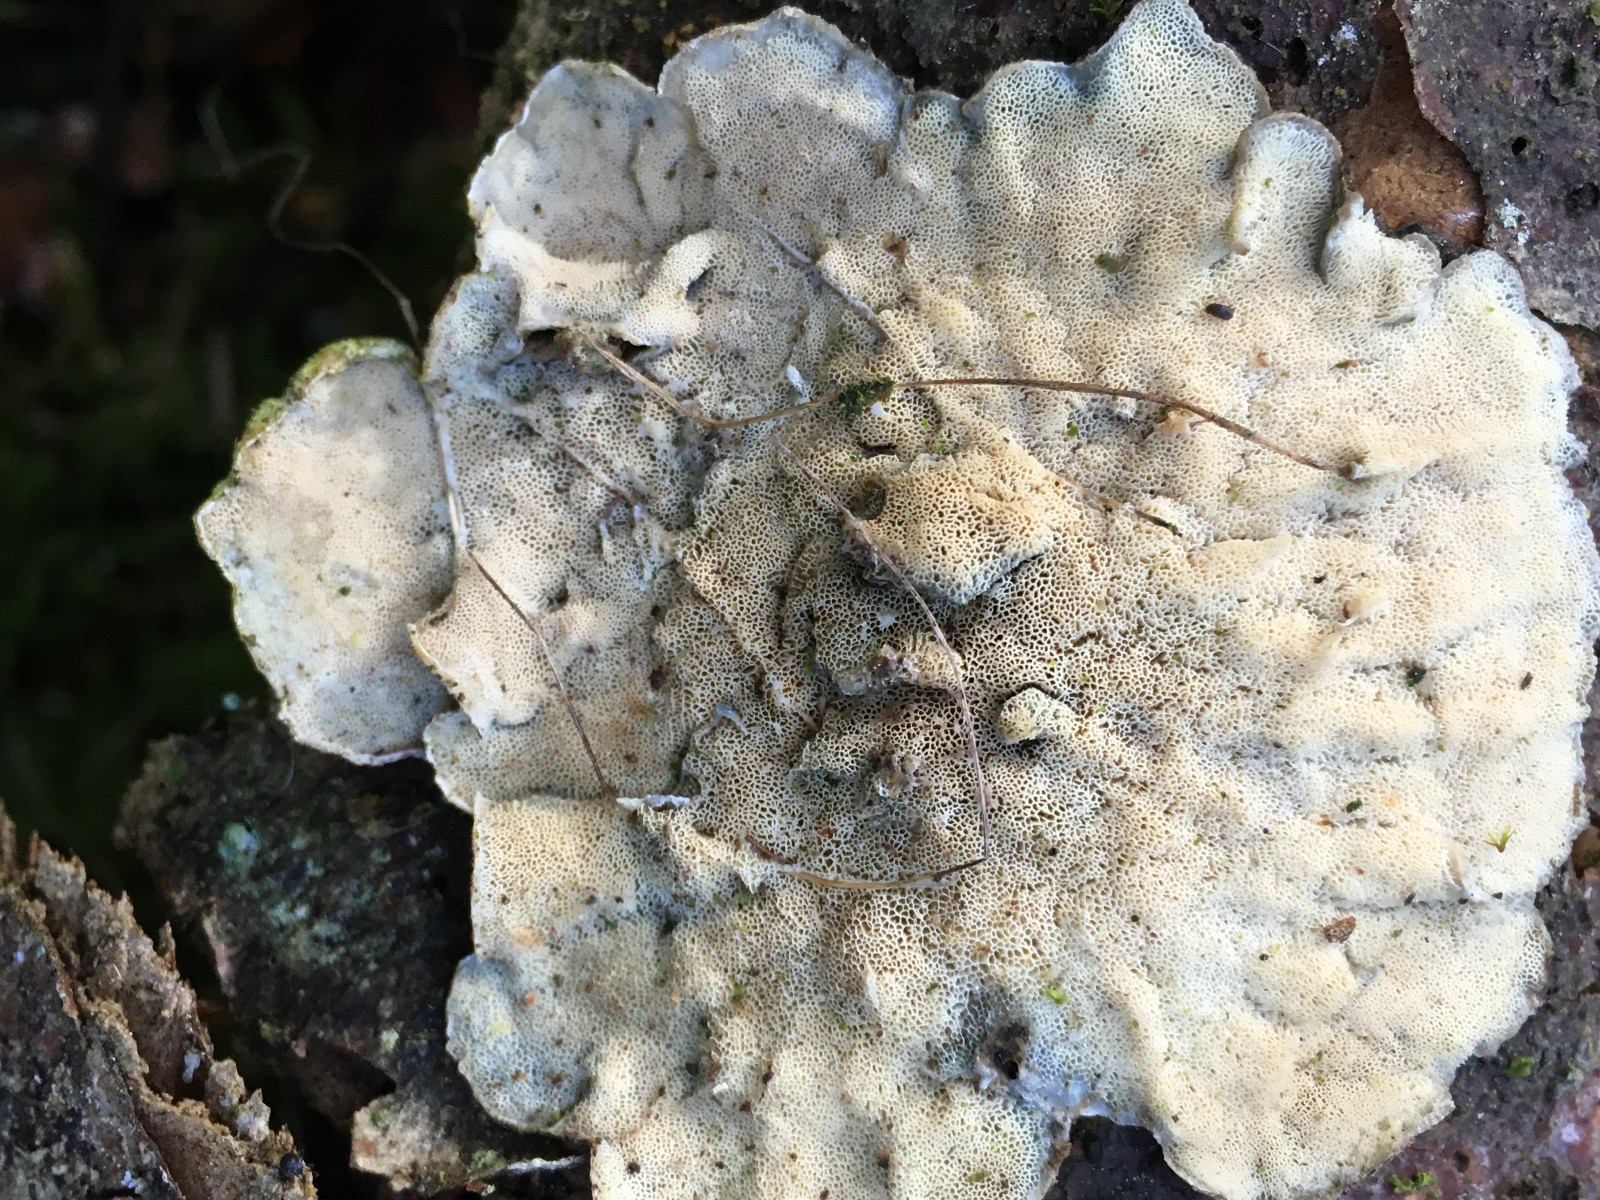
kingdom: Fungi
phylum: Basidiomycota
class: Agaricomycetes
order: Polyporales
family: Incrustoporiaceae
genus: Skeletocutis
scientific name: Skeletocutis
